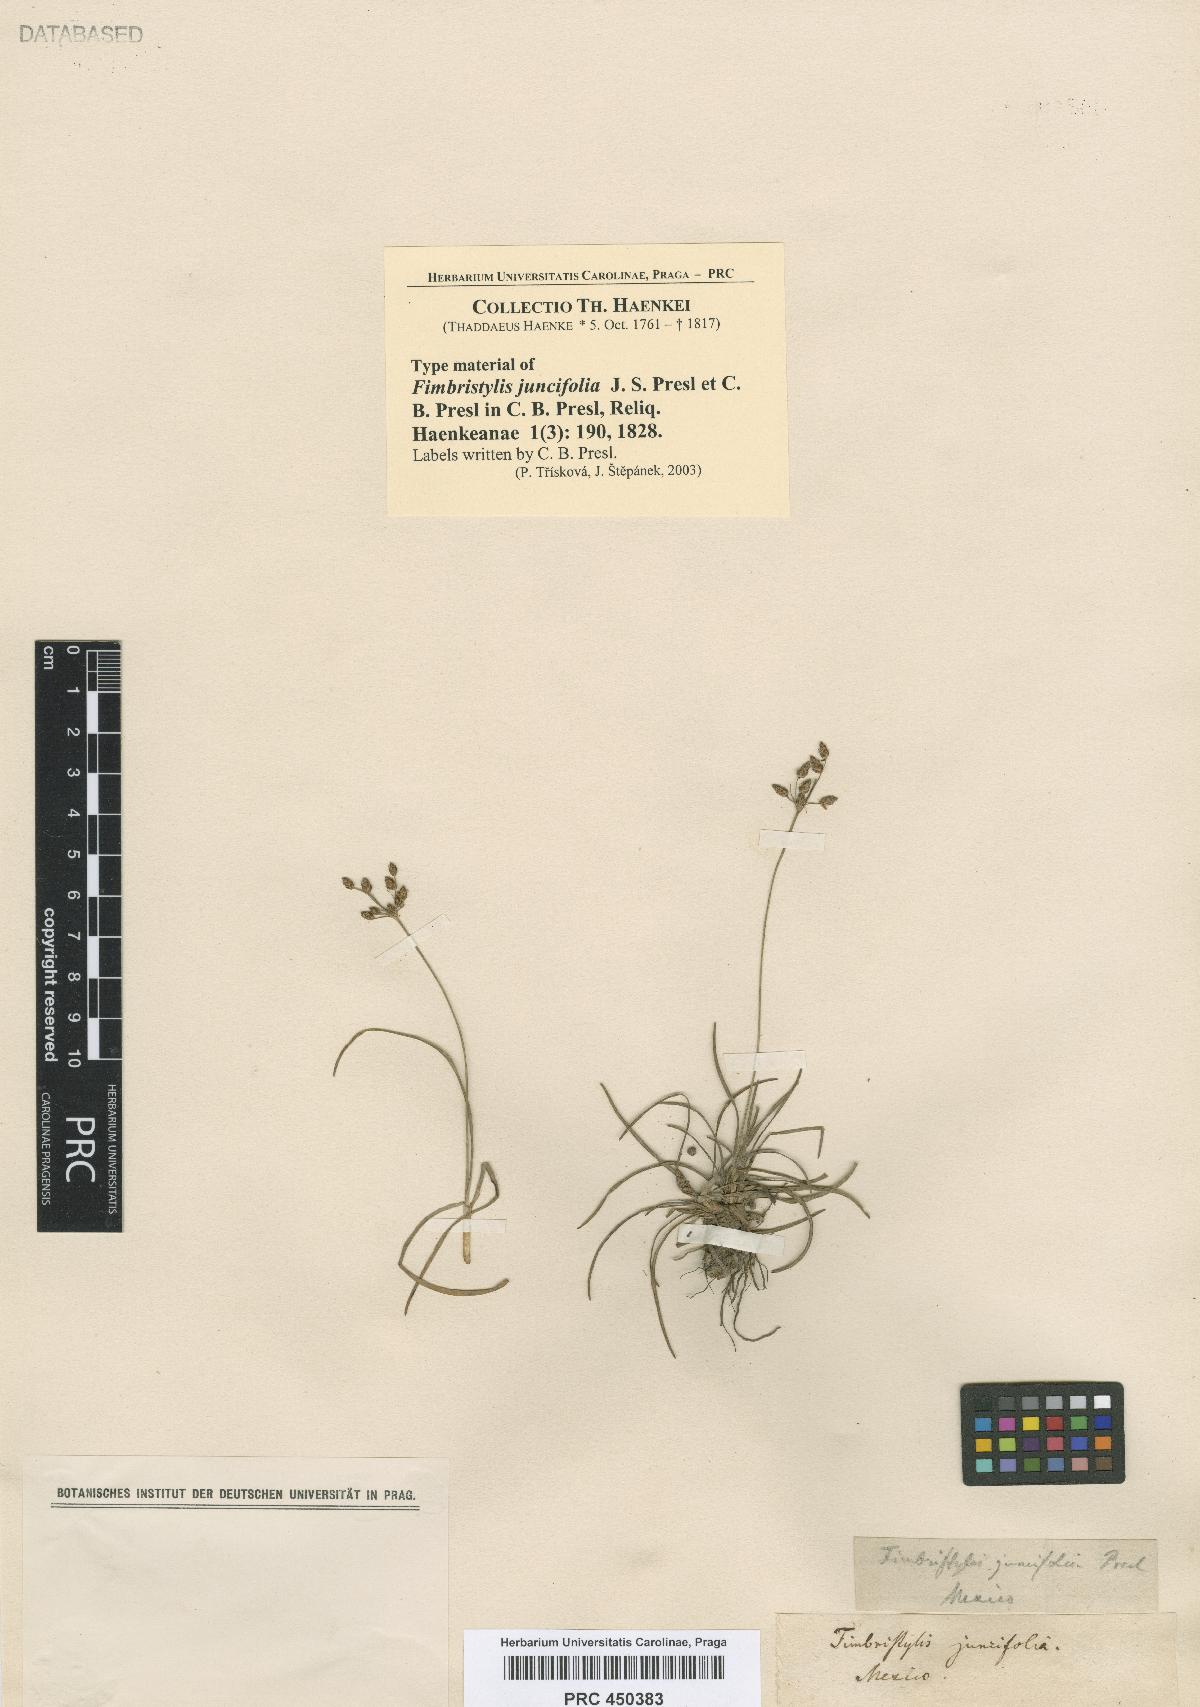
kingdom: Plantae
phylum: Tracheophyta
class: Liliopsida
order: Poales
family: Cyperaceae
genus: Fimbristylis
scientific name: Fimbristylis dichotoma
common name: Forked fimbry
